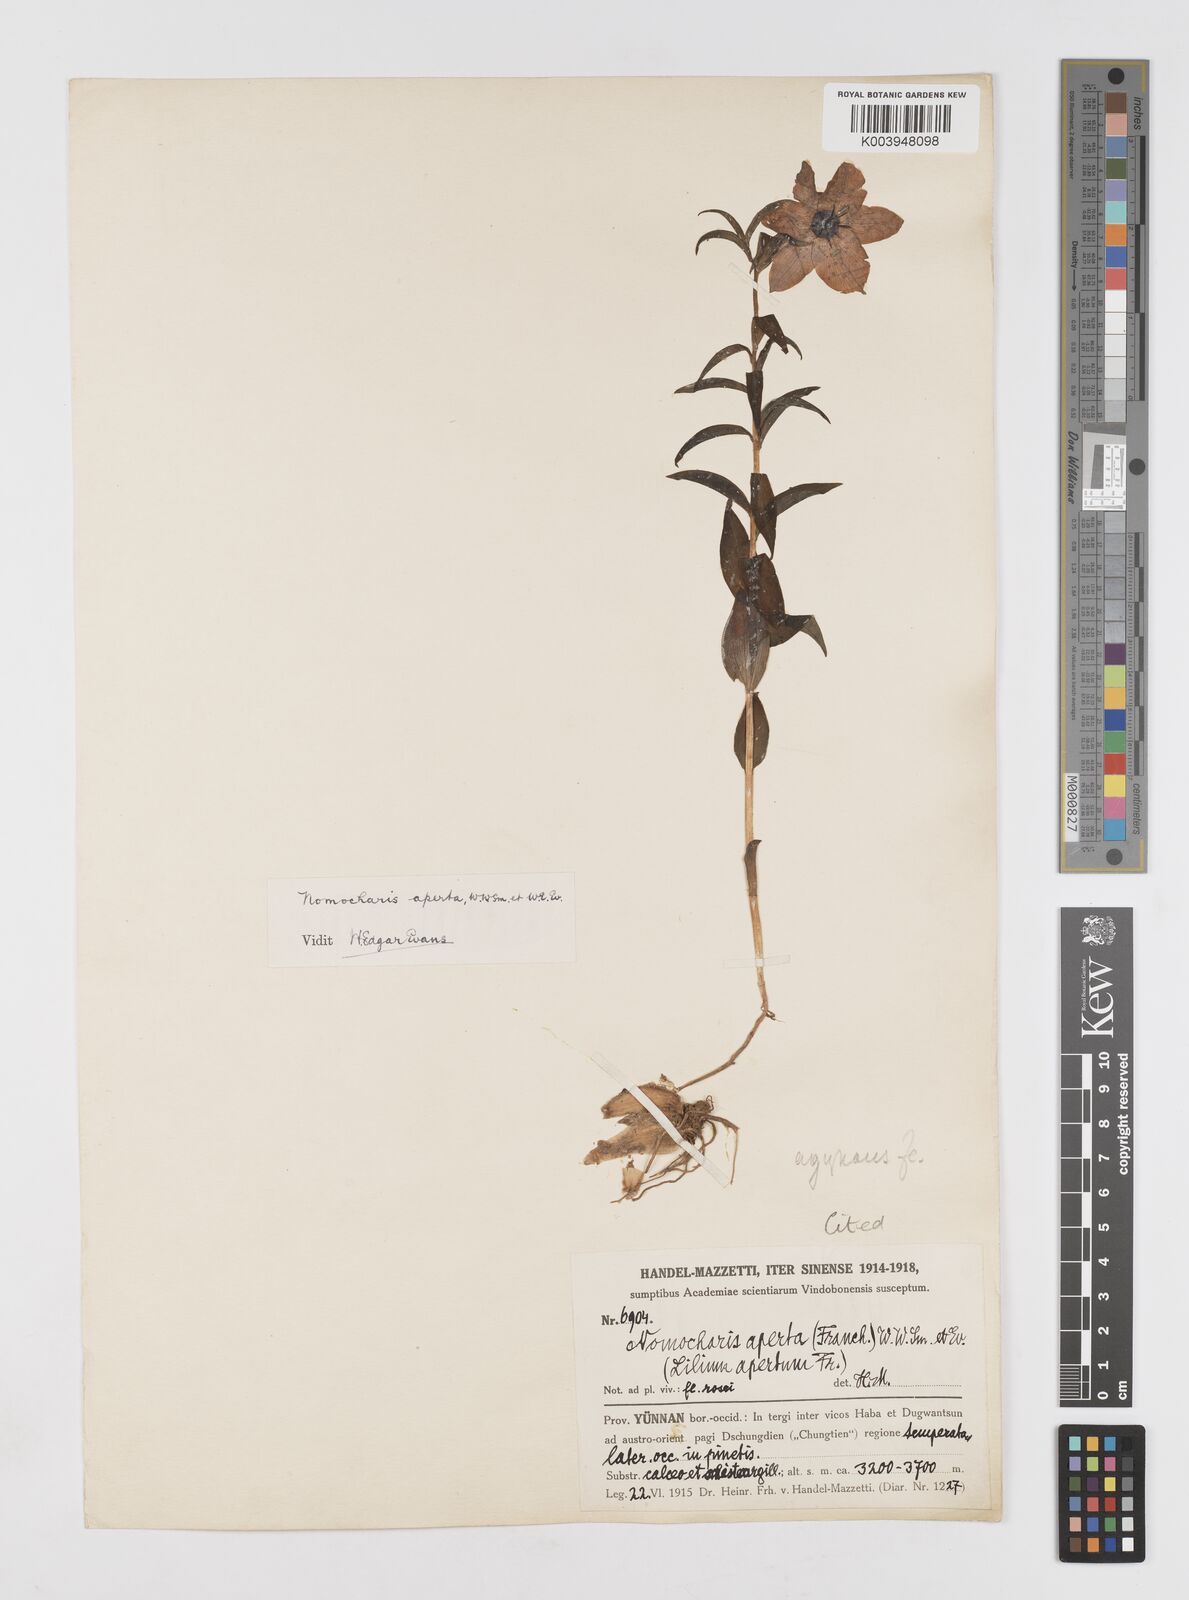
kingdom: Plantae
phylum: Tracheophyta
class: Liliopsida
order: Liliales
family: Liliaceae
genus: Lilium
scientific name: Lilium
